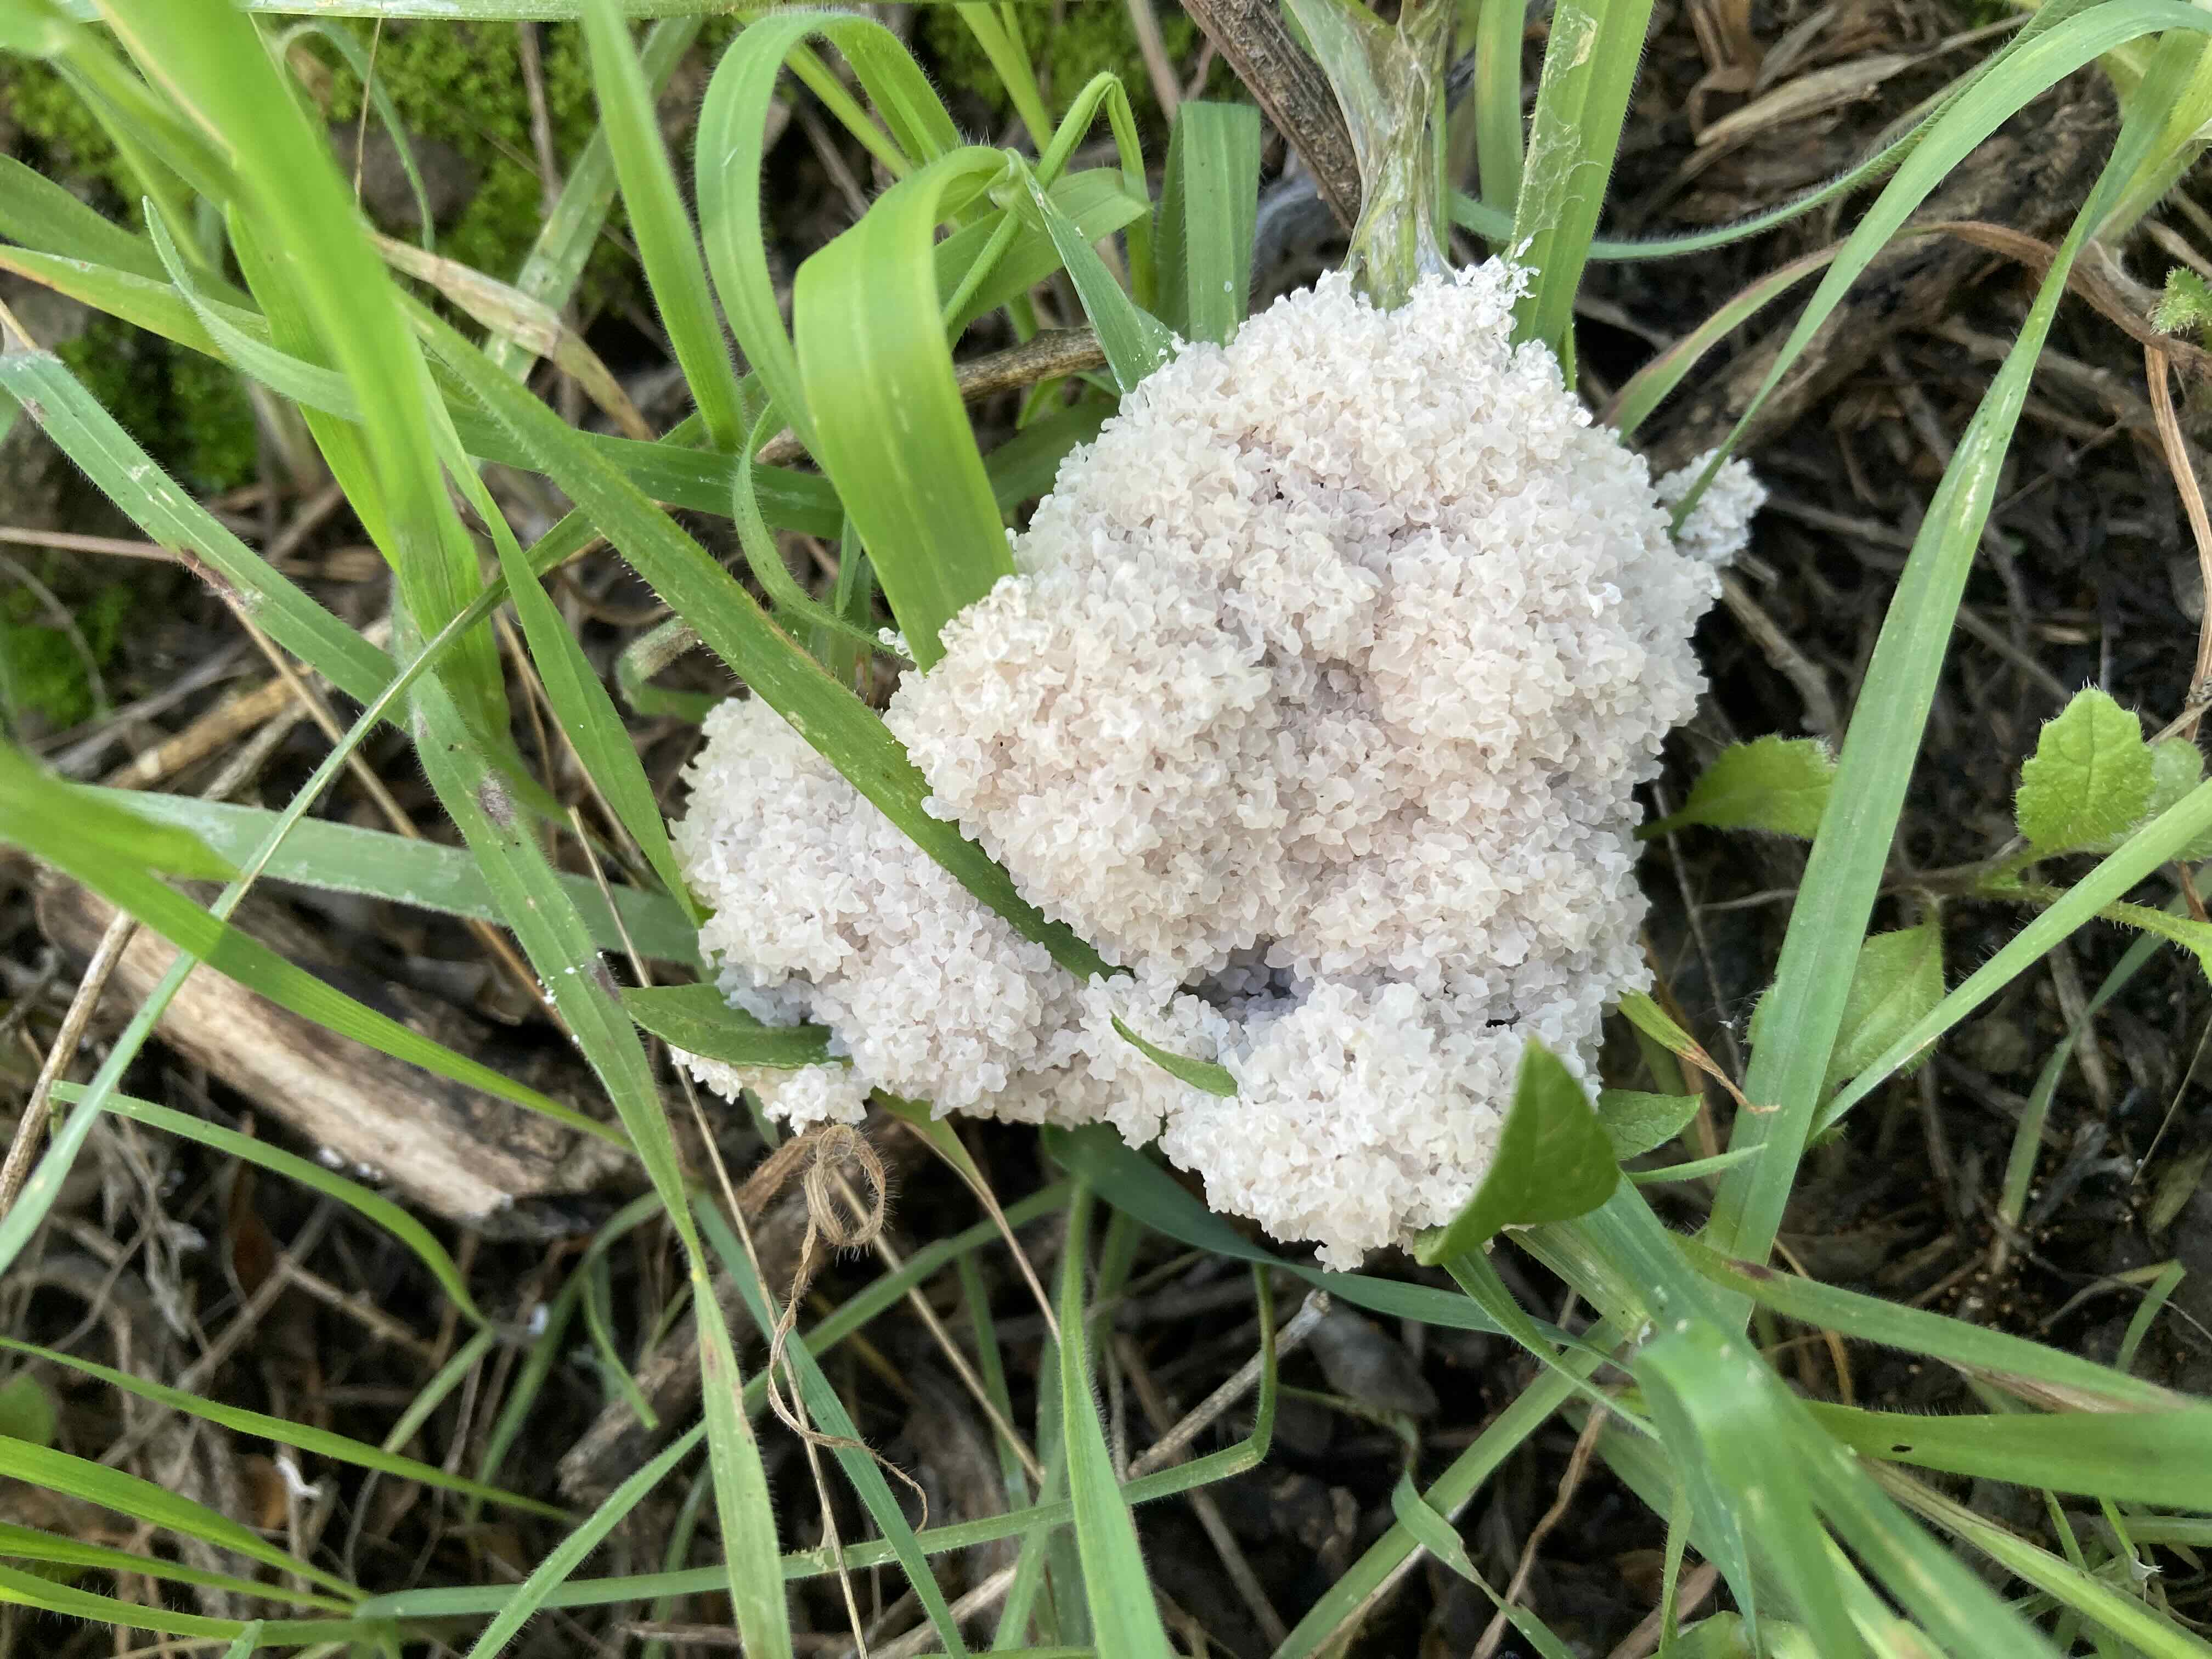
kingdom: Protozoa
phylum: Mycetozoa
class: Myxomycetes
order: Physarales
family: Physaraceae
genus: Didymium
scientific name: Didymium
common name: urteskum
